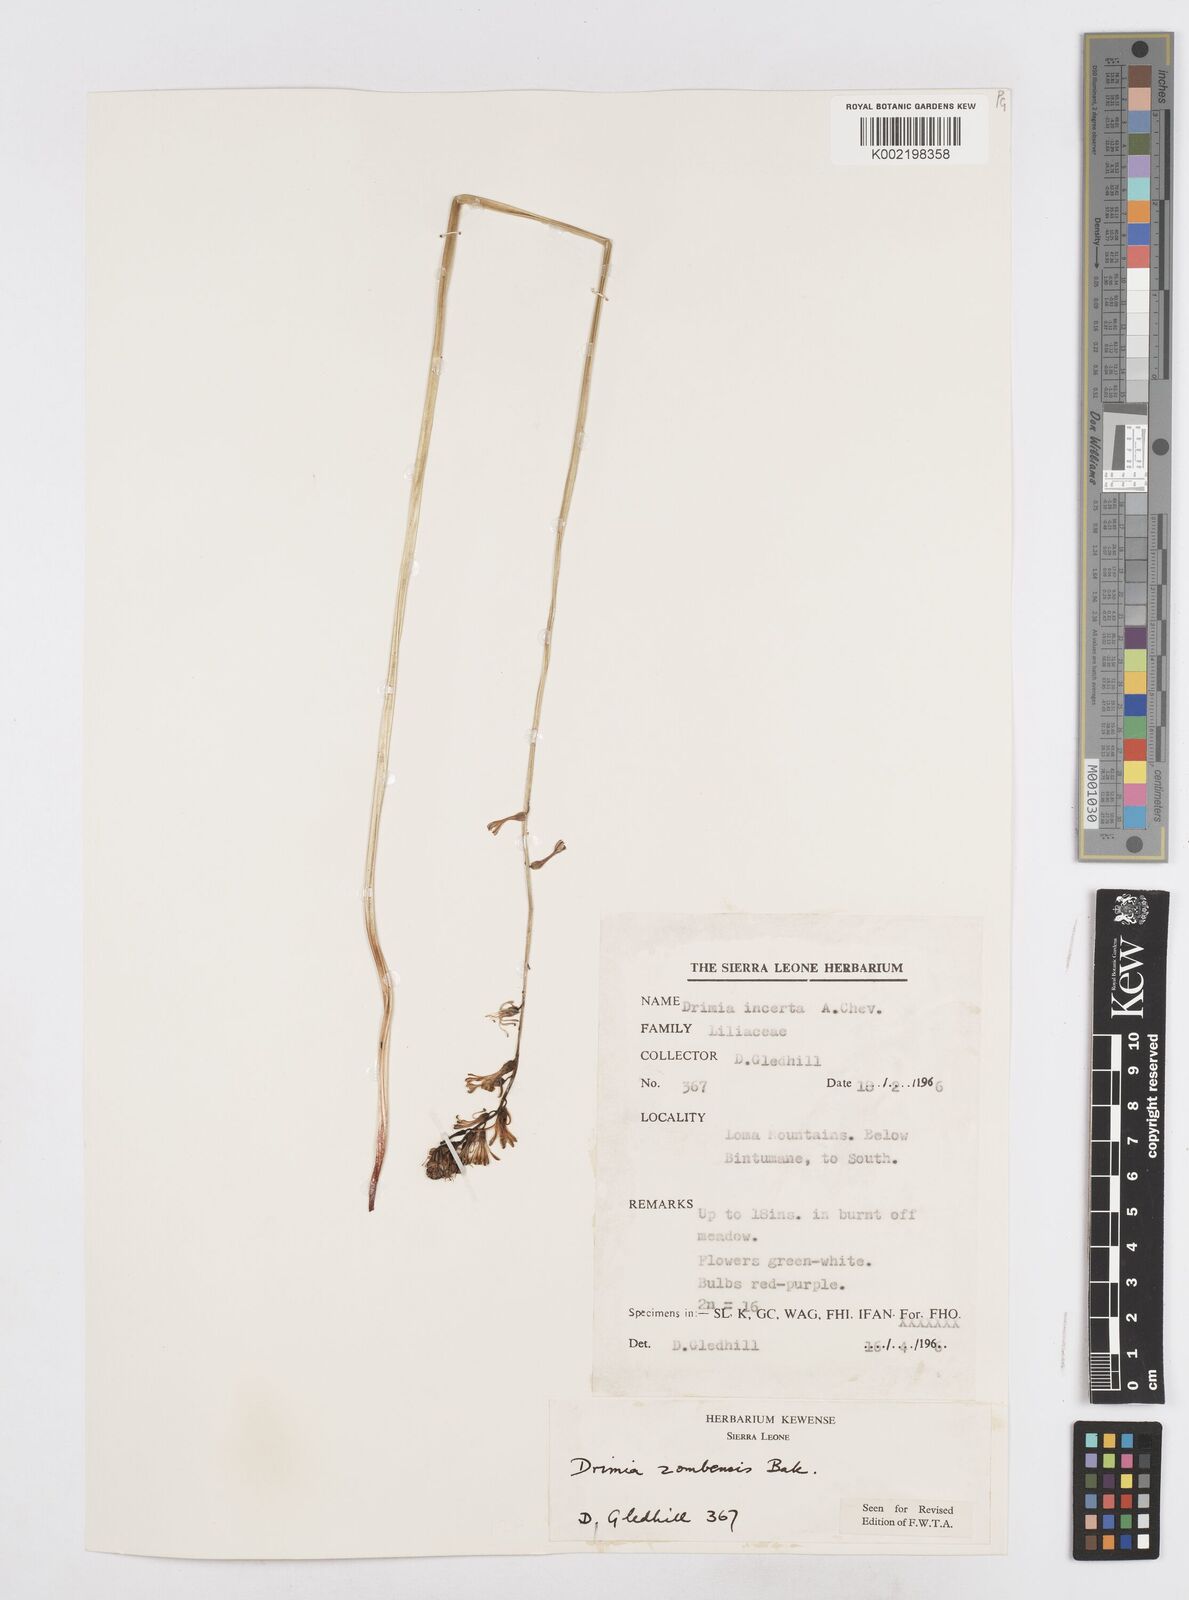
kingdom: Plantae
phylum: Tracheophyta
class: Liliopsida
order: Asparagales
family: Asparagaceae
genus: Drimia
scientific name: Drimia elata
